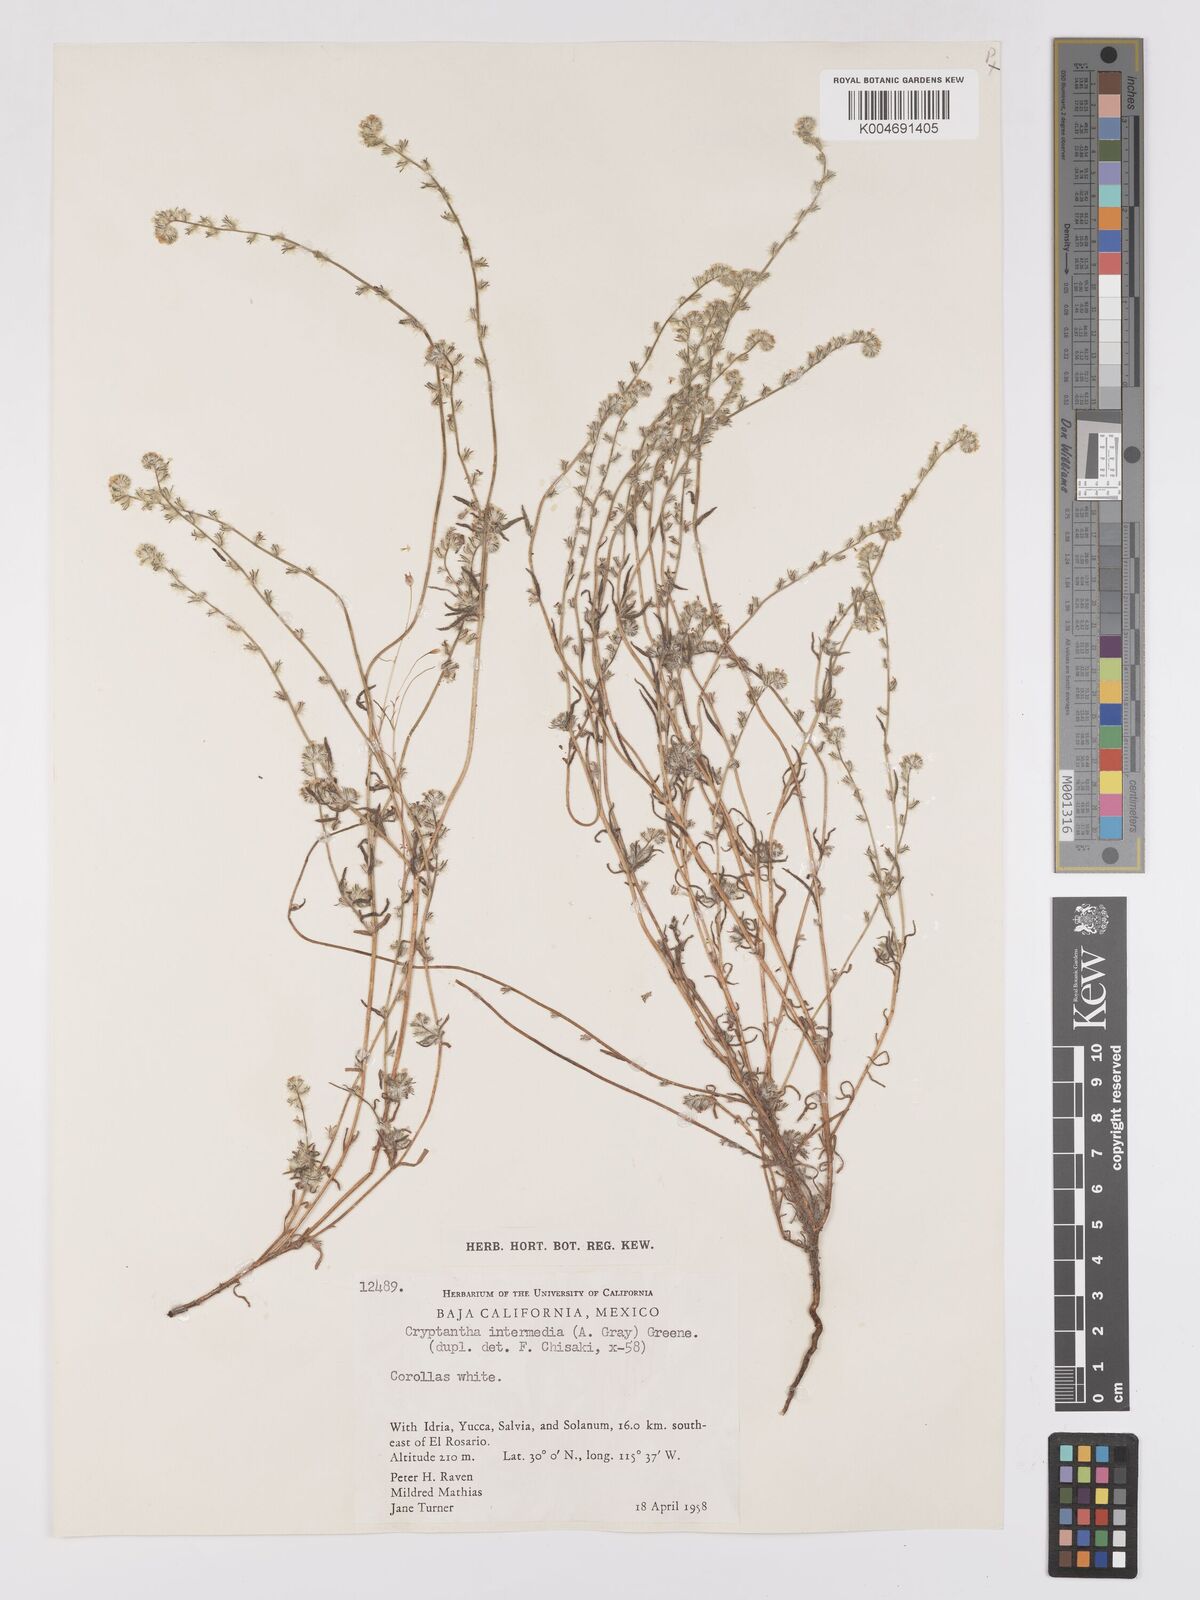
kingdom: Plantae
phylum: Tracheophyta
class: Magnoliopsida
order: Boraginales
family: Boraginaceae
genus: Cryptantha
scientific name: Cryptantha intermedia
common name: Clearwater cryptantha
